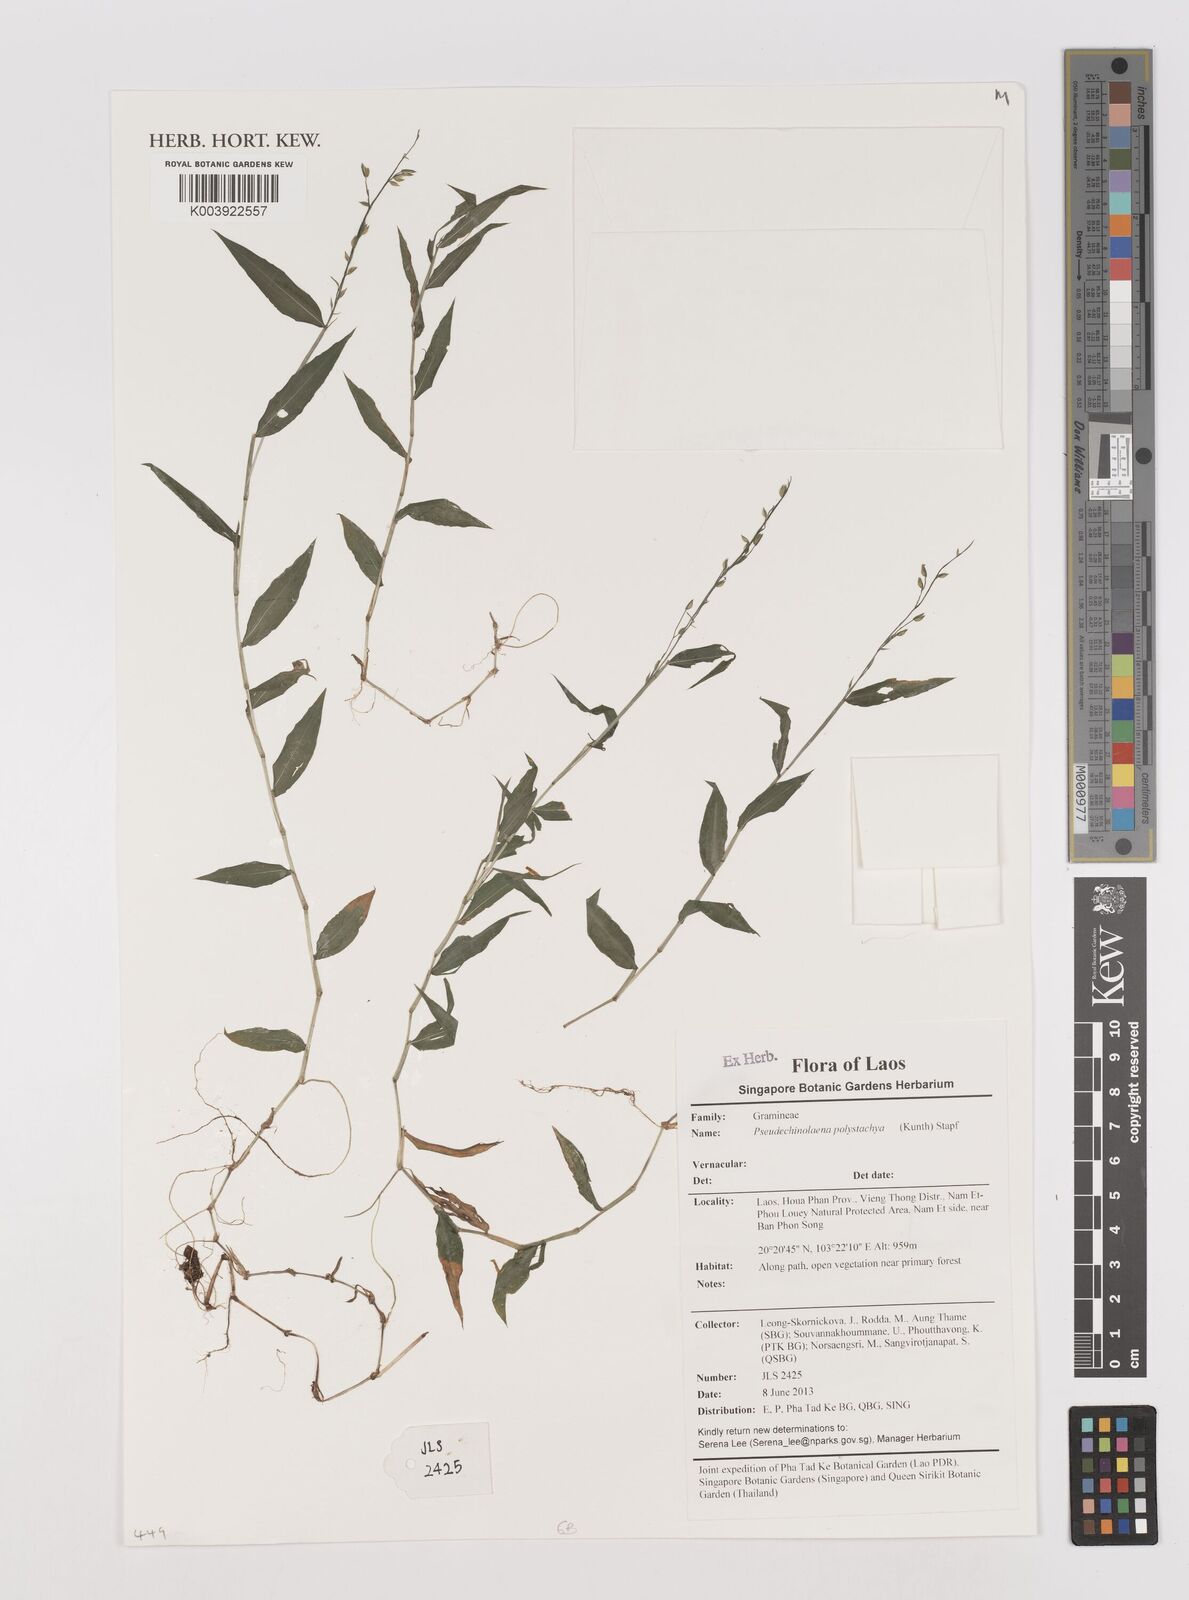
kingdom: Plantae
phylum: Tracheophyta
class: Liliopsida
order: Poales
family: Poaceae
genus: Pseudechinolaena
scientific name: Pseudechinolaena polystachya
